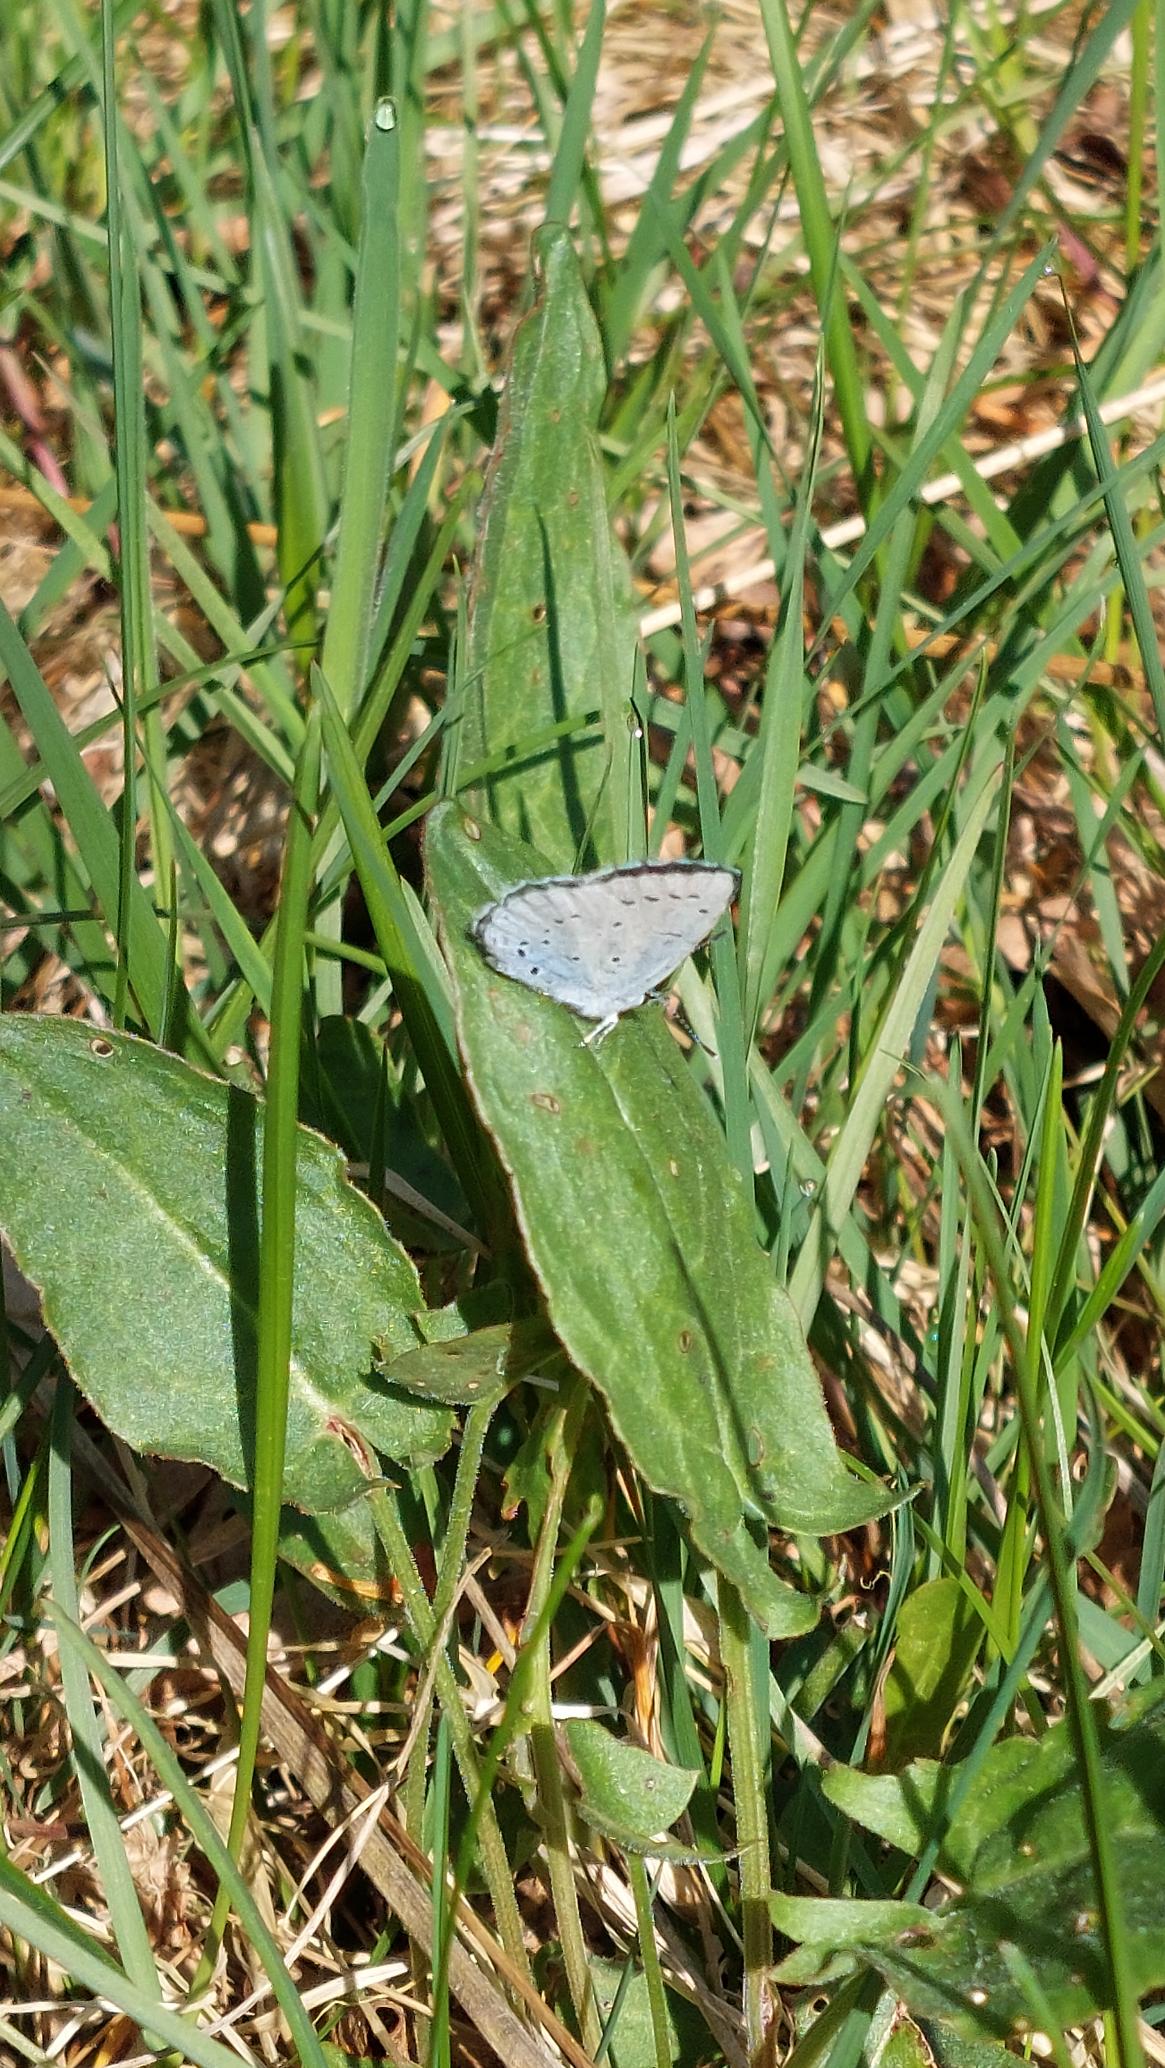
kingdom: Animalia
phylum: Arthropoda
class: Insecta
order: Lepidoptera
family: Lycaenidae
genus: Celastrina
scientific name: Celastrina argiolus
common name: Skovblåfugl
